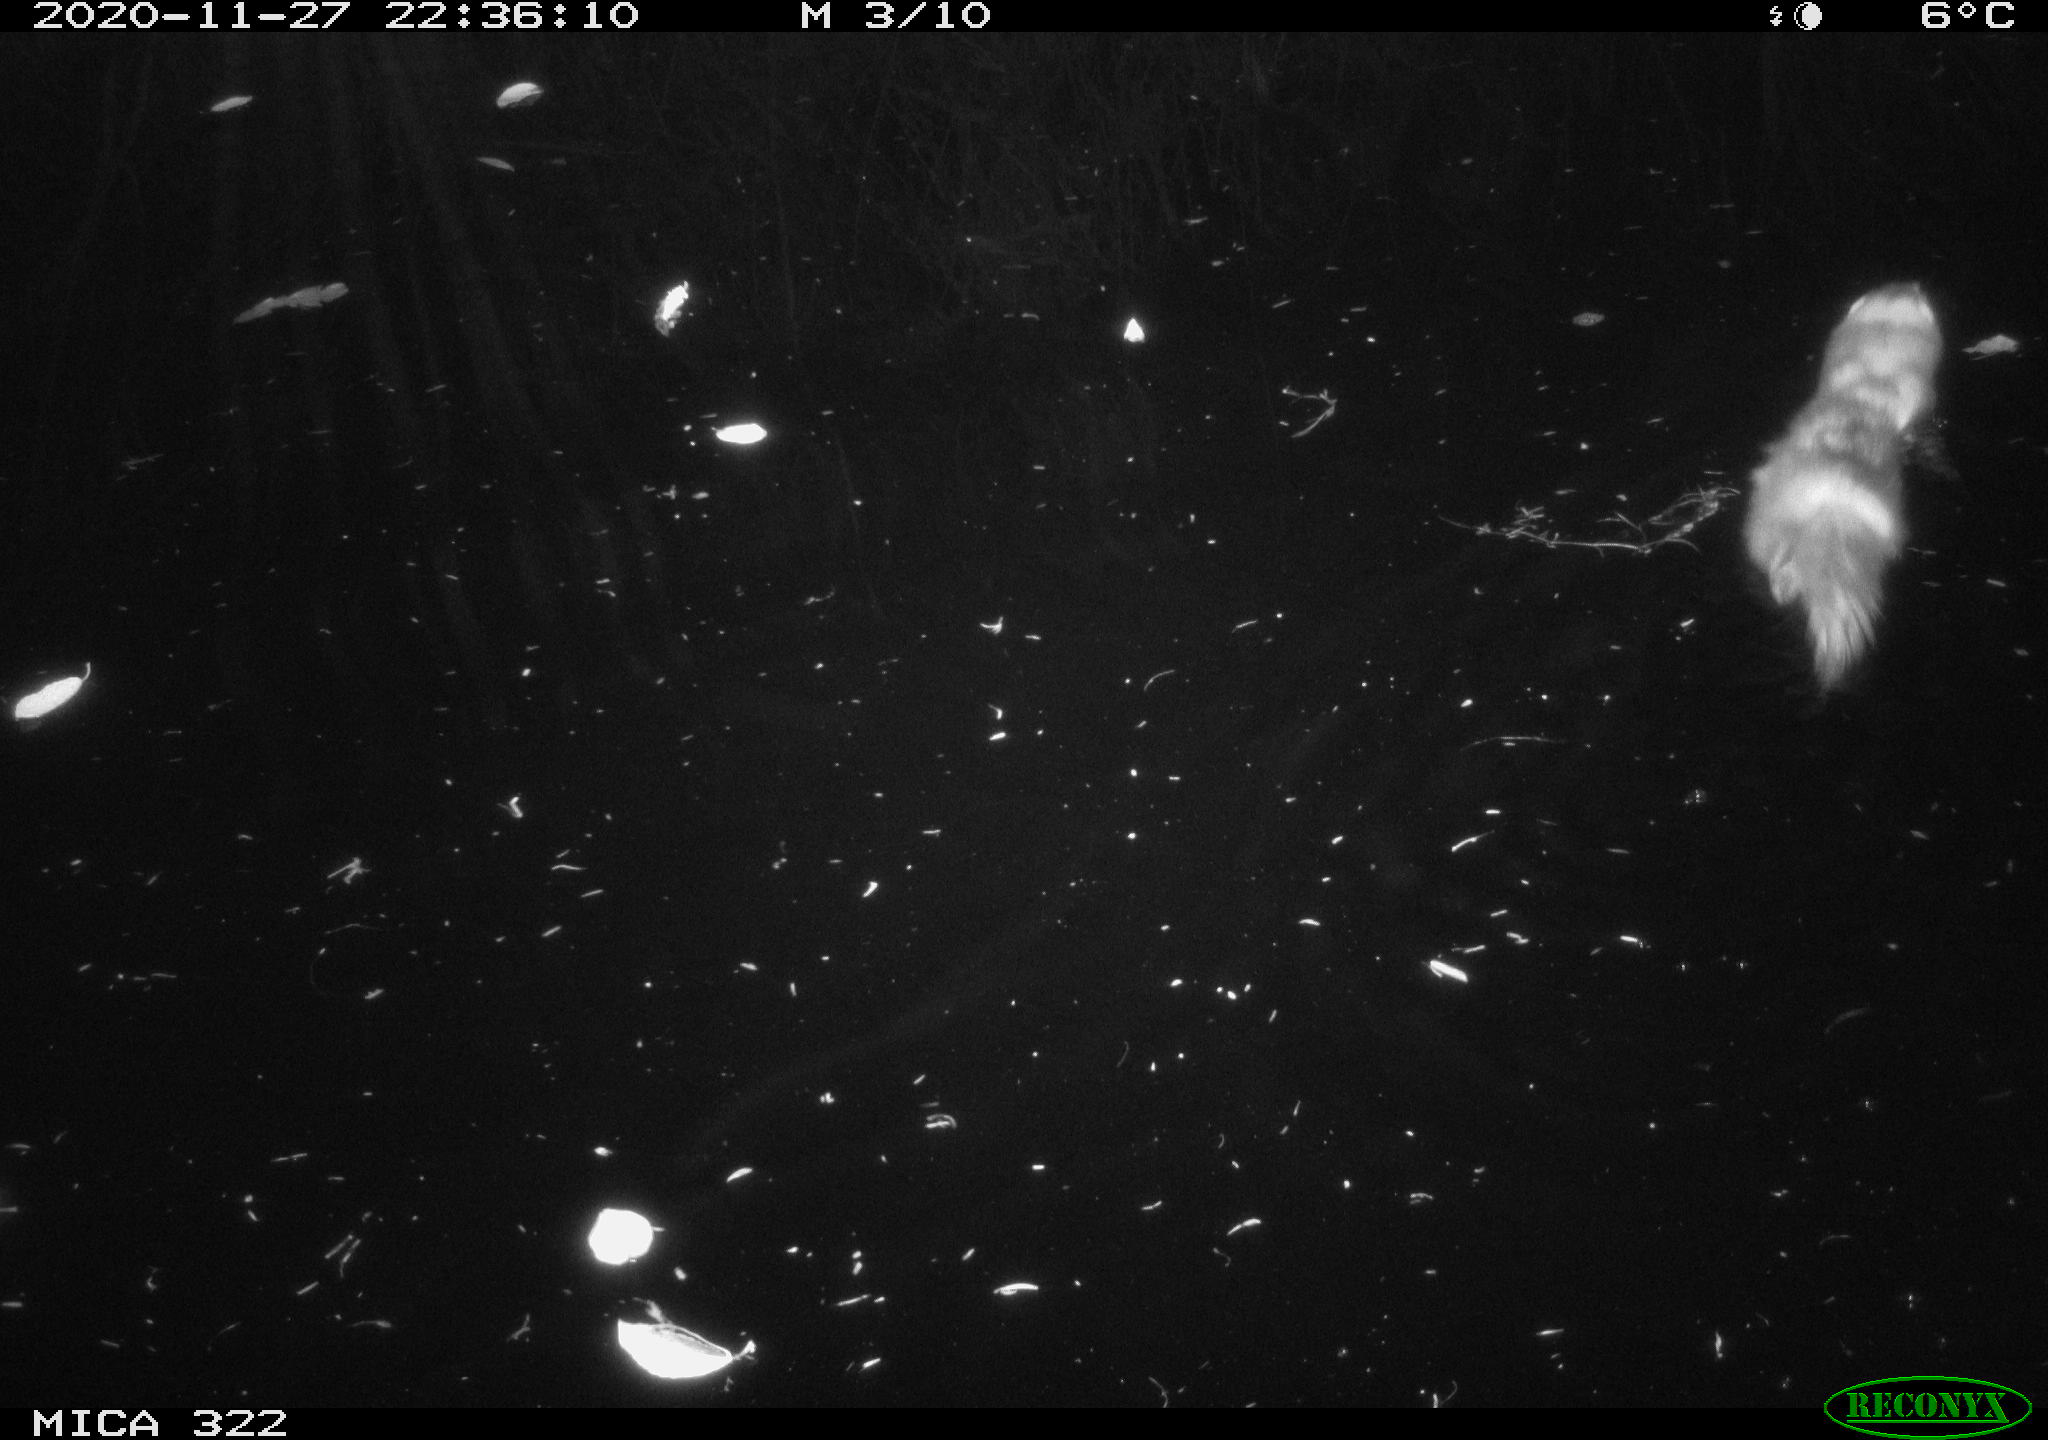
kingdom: Animalia
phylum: Chordata
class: Mammalia
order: Carnivora
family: Mustelidae
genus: Martes
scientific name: Martes foina
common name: Beech marten
